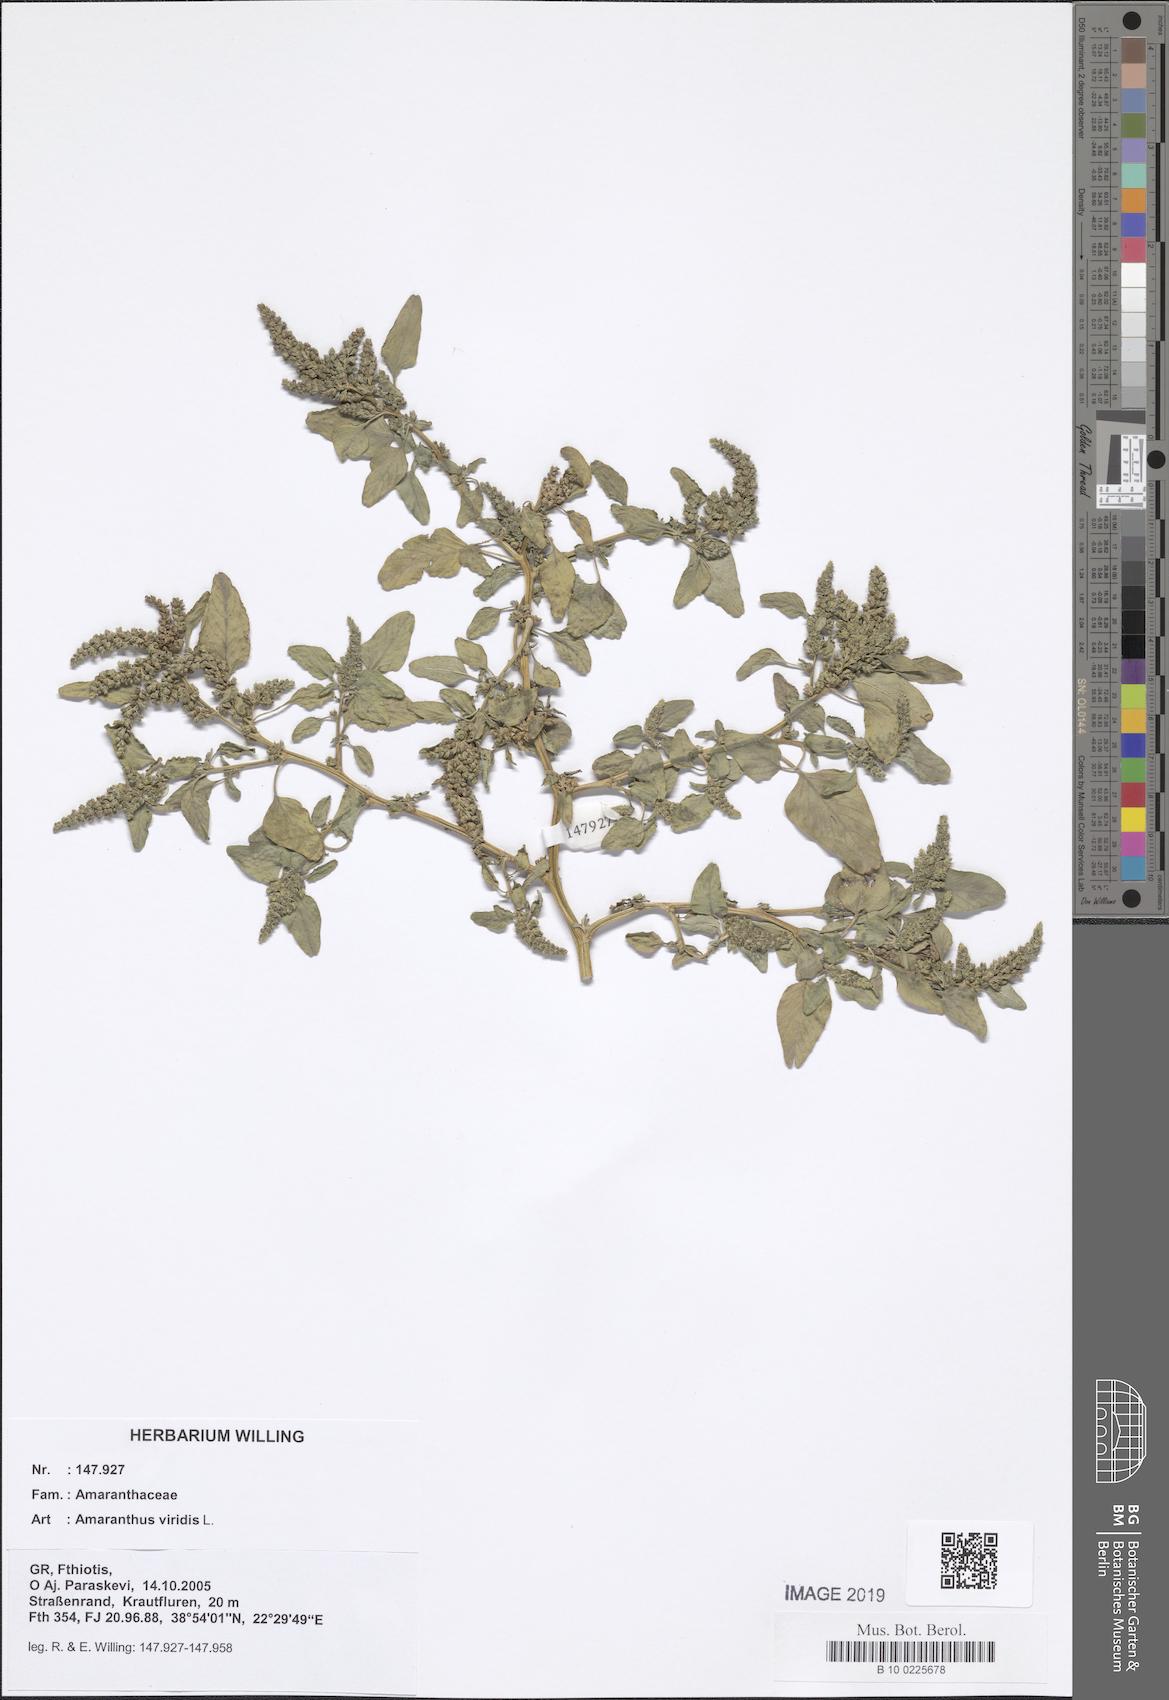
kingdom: Plantae
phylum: Tracheophyta
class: Magnoliopsida
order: Caryophyllales
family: Amaranthaceae
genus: Amaranthus
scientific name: Amaranthus viridis
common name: Slender amaranth
